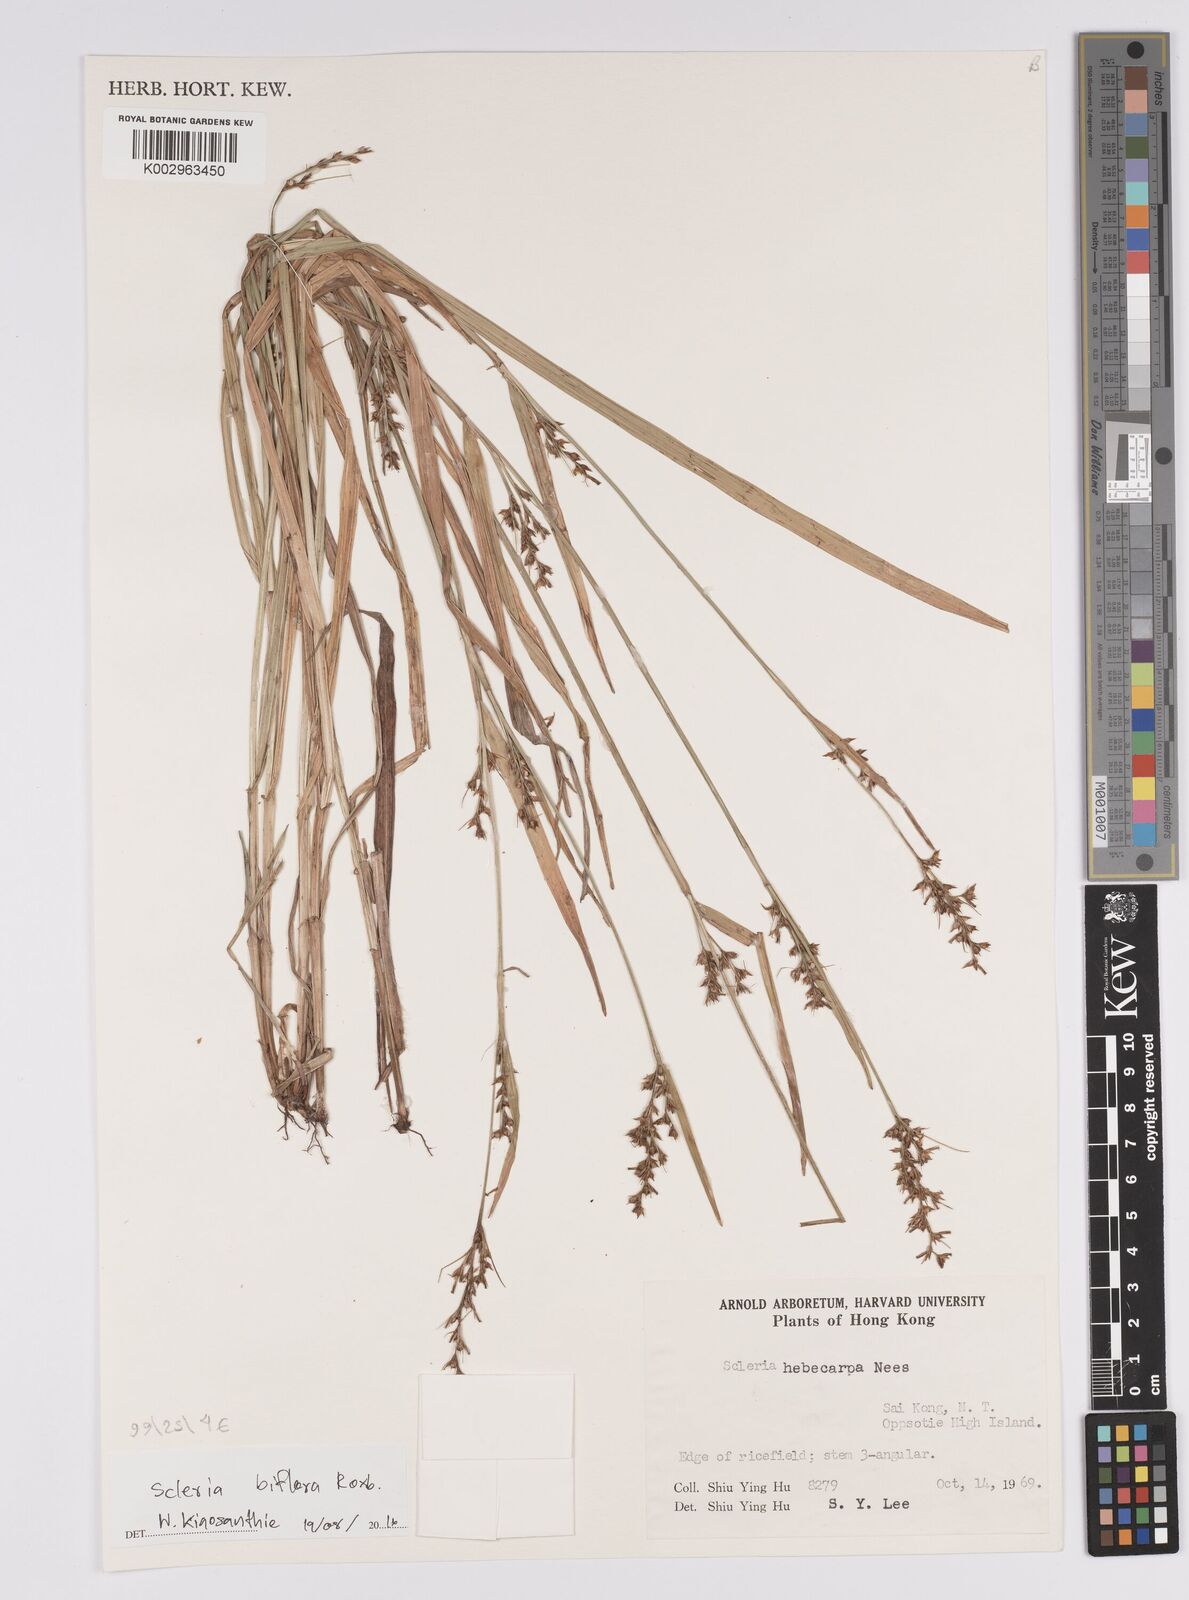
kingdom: Plantae
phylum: Tracheophyta
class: Liliopsida
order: Poales
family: Cyperaceae
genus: Scleria
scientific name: Scleria biflora
